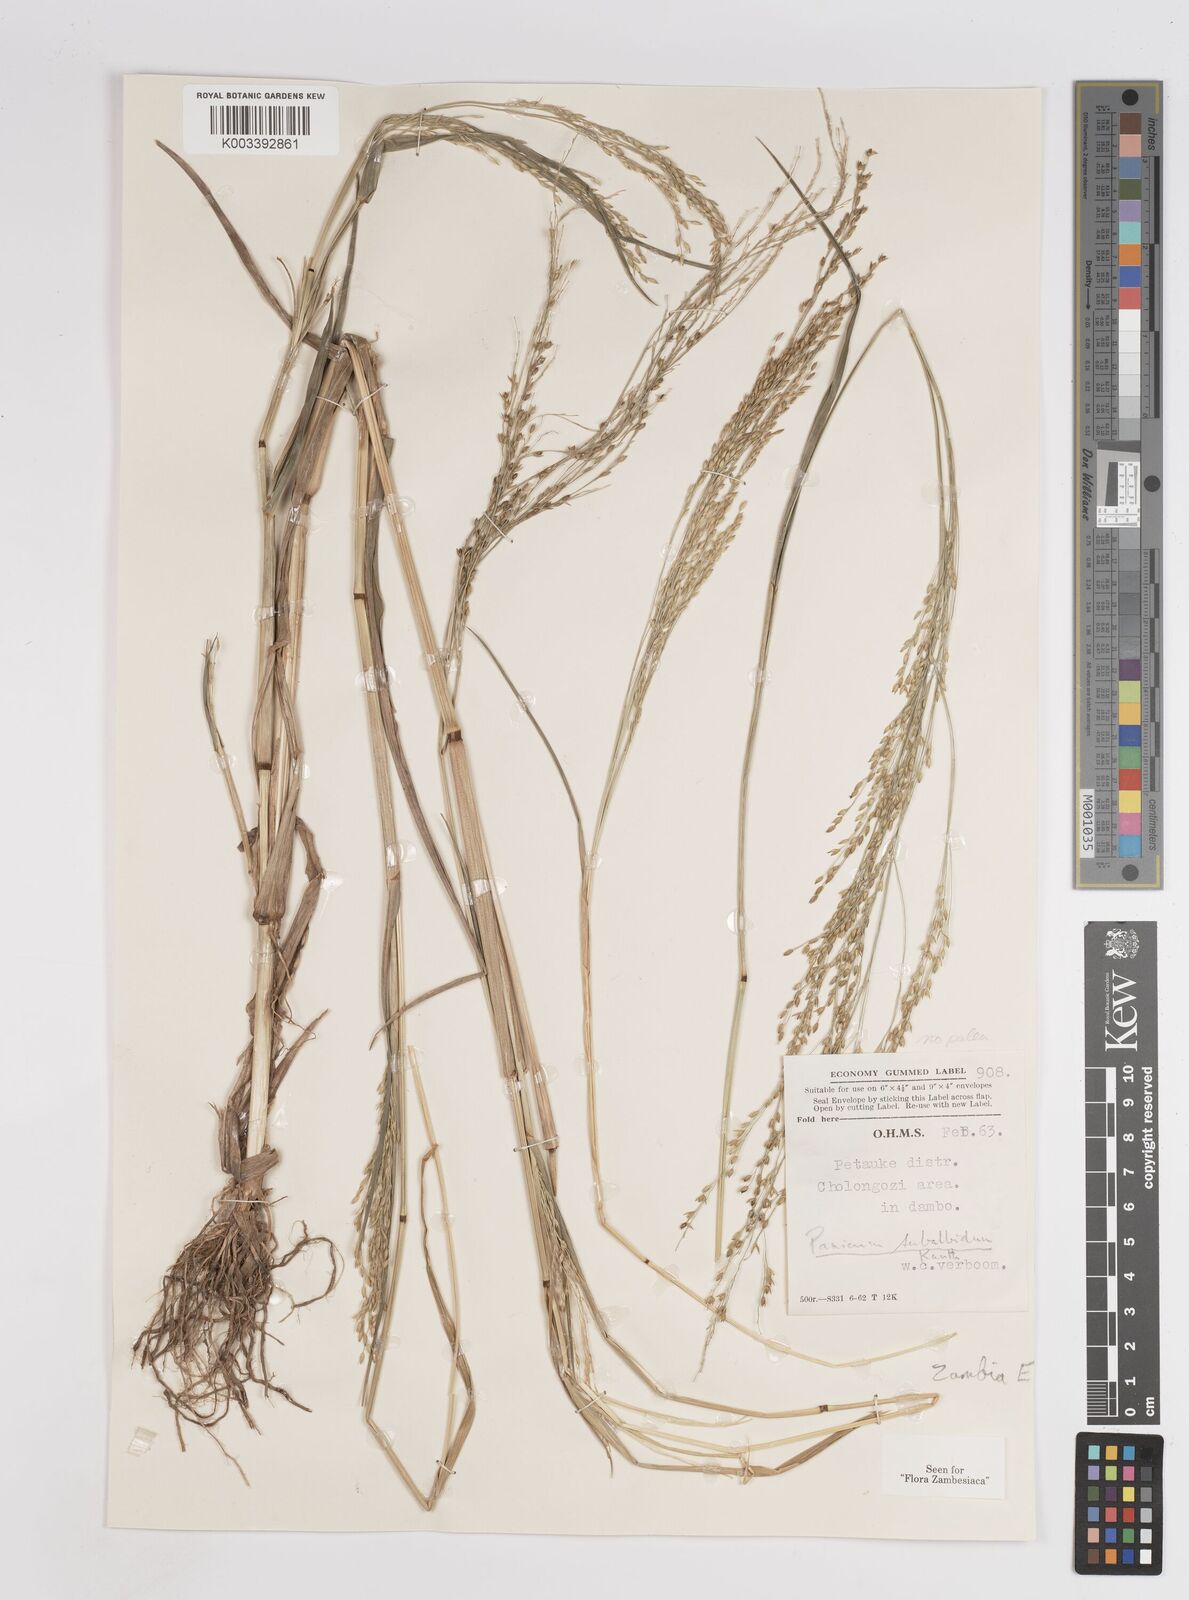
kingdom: Plantae
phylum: Tracheophyta
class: Liliopsida
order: Poales
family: Poaceae
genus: Panicum
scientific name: Panicum subalbidum
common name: Elbow buffalo grass
